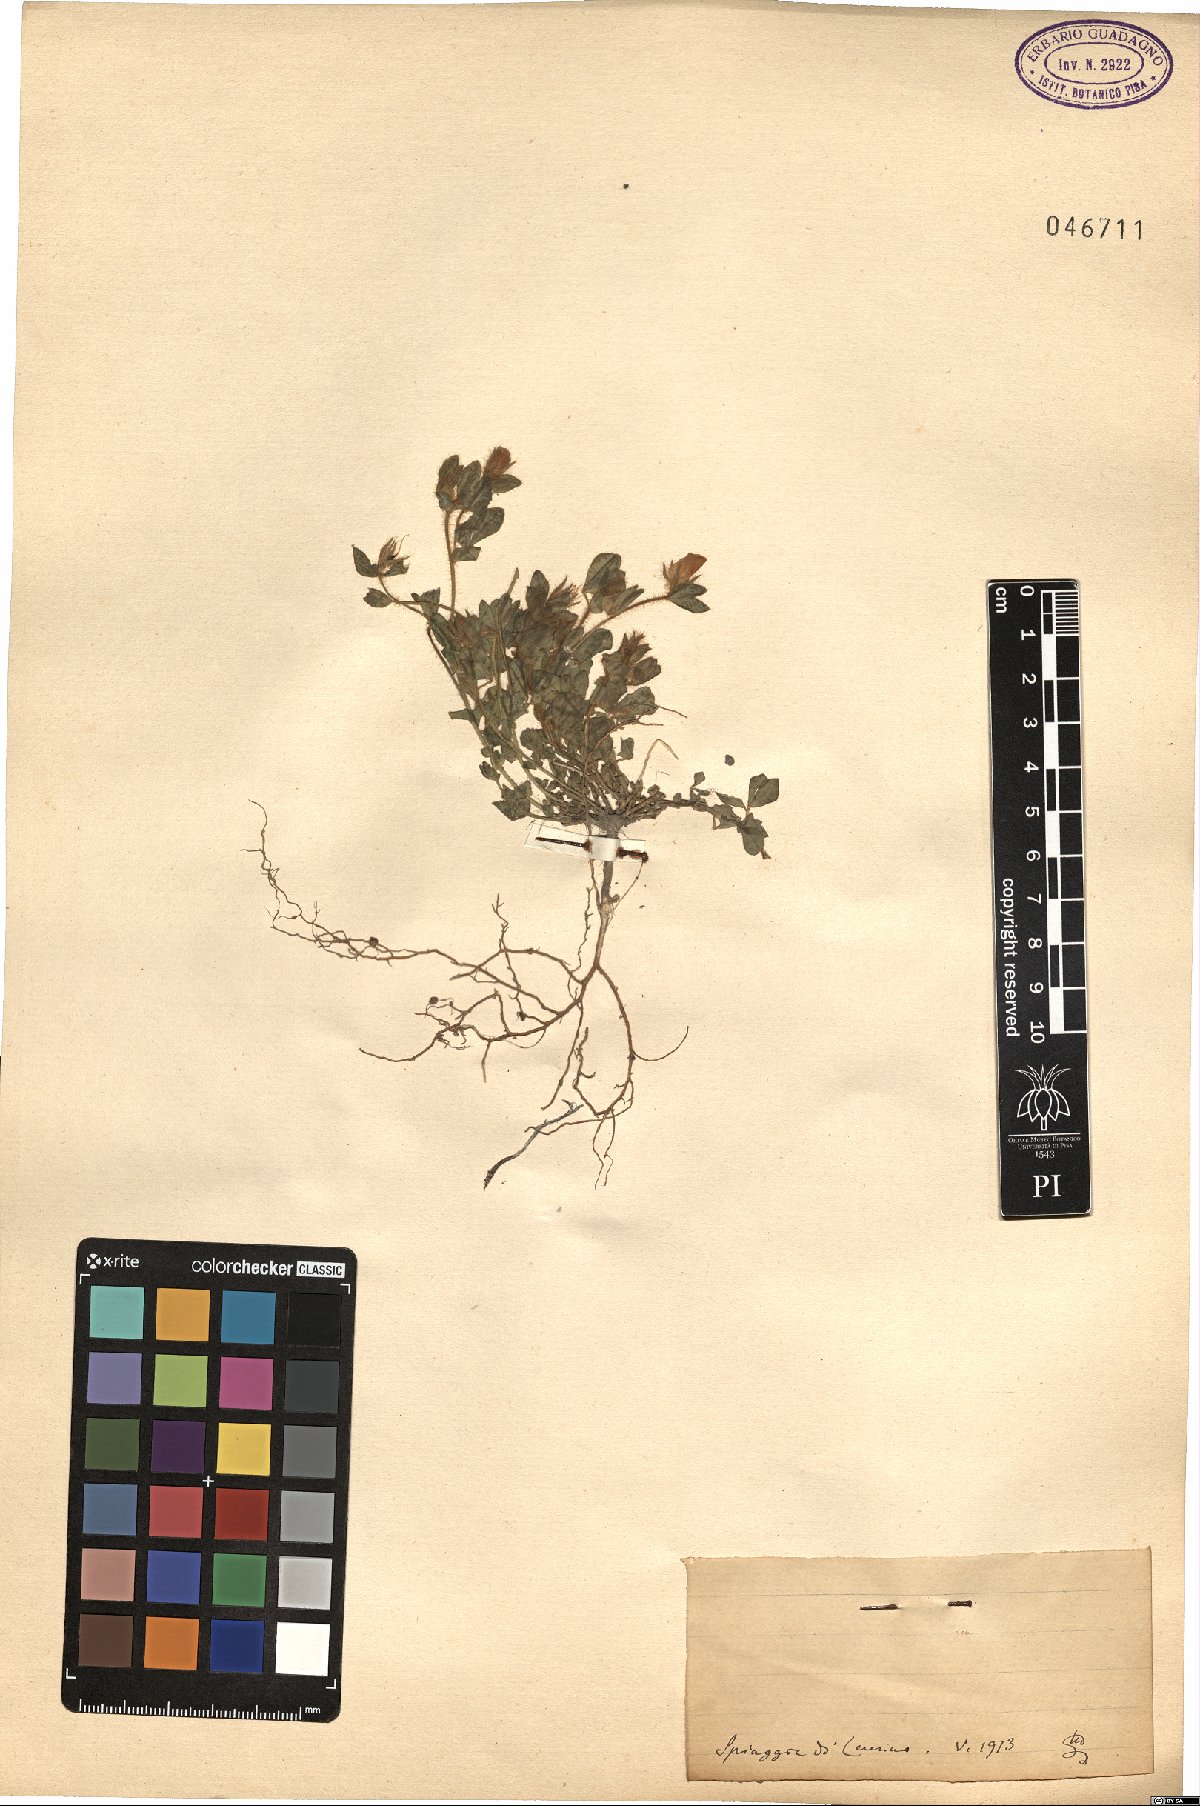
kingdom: Plantae
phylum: Tracheophyta
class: Magnoliopsida
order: Fabales
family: Fabaceae
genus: Lotus
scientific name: Lotus
